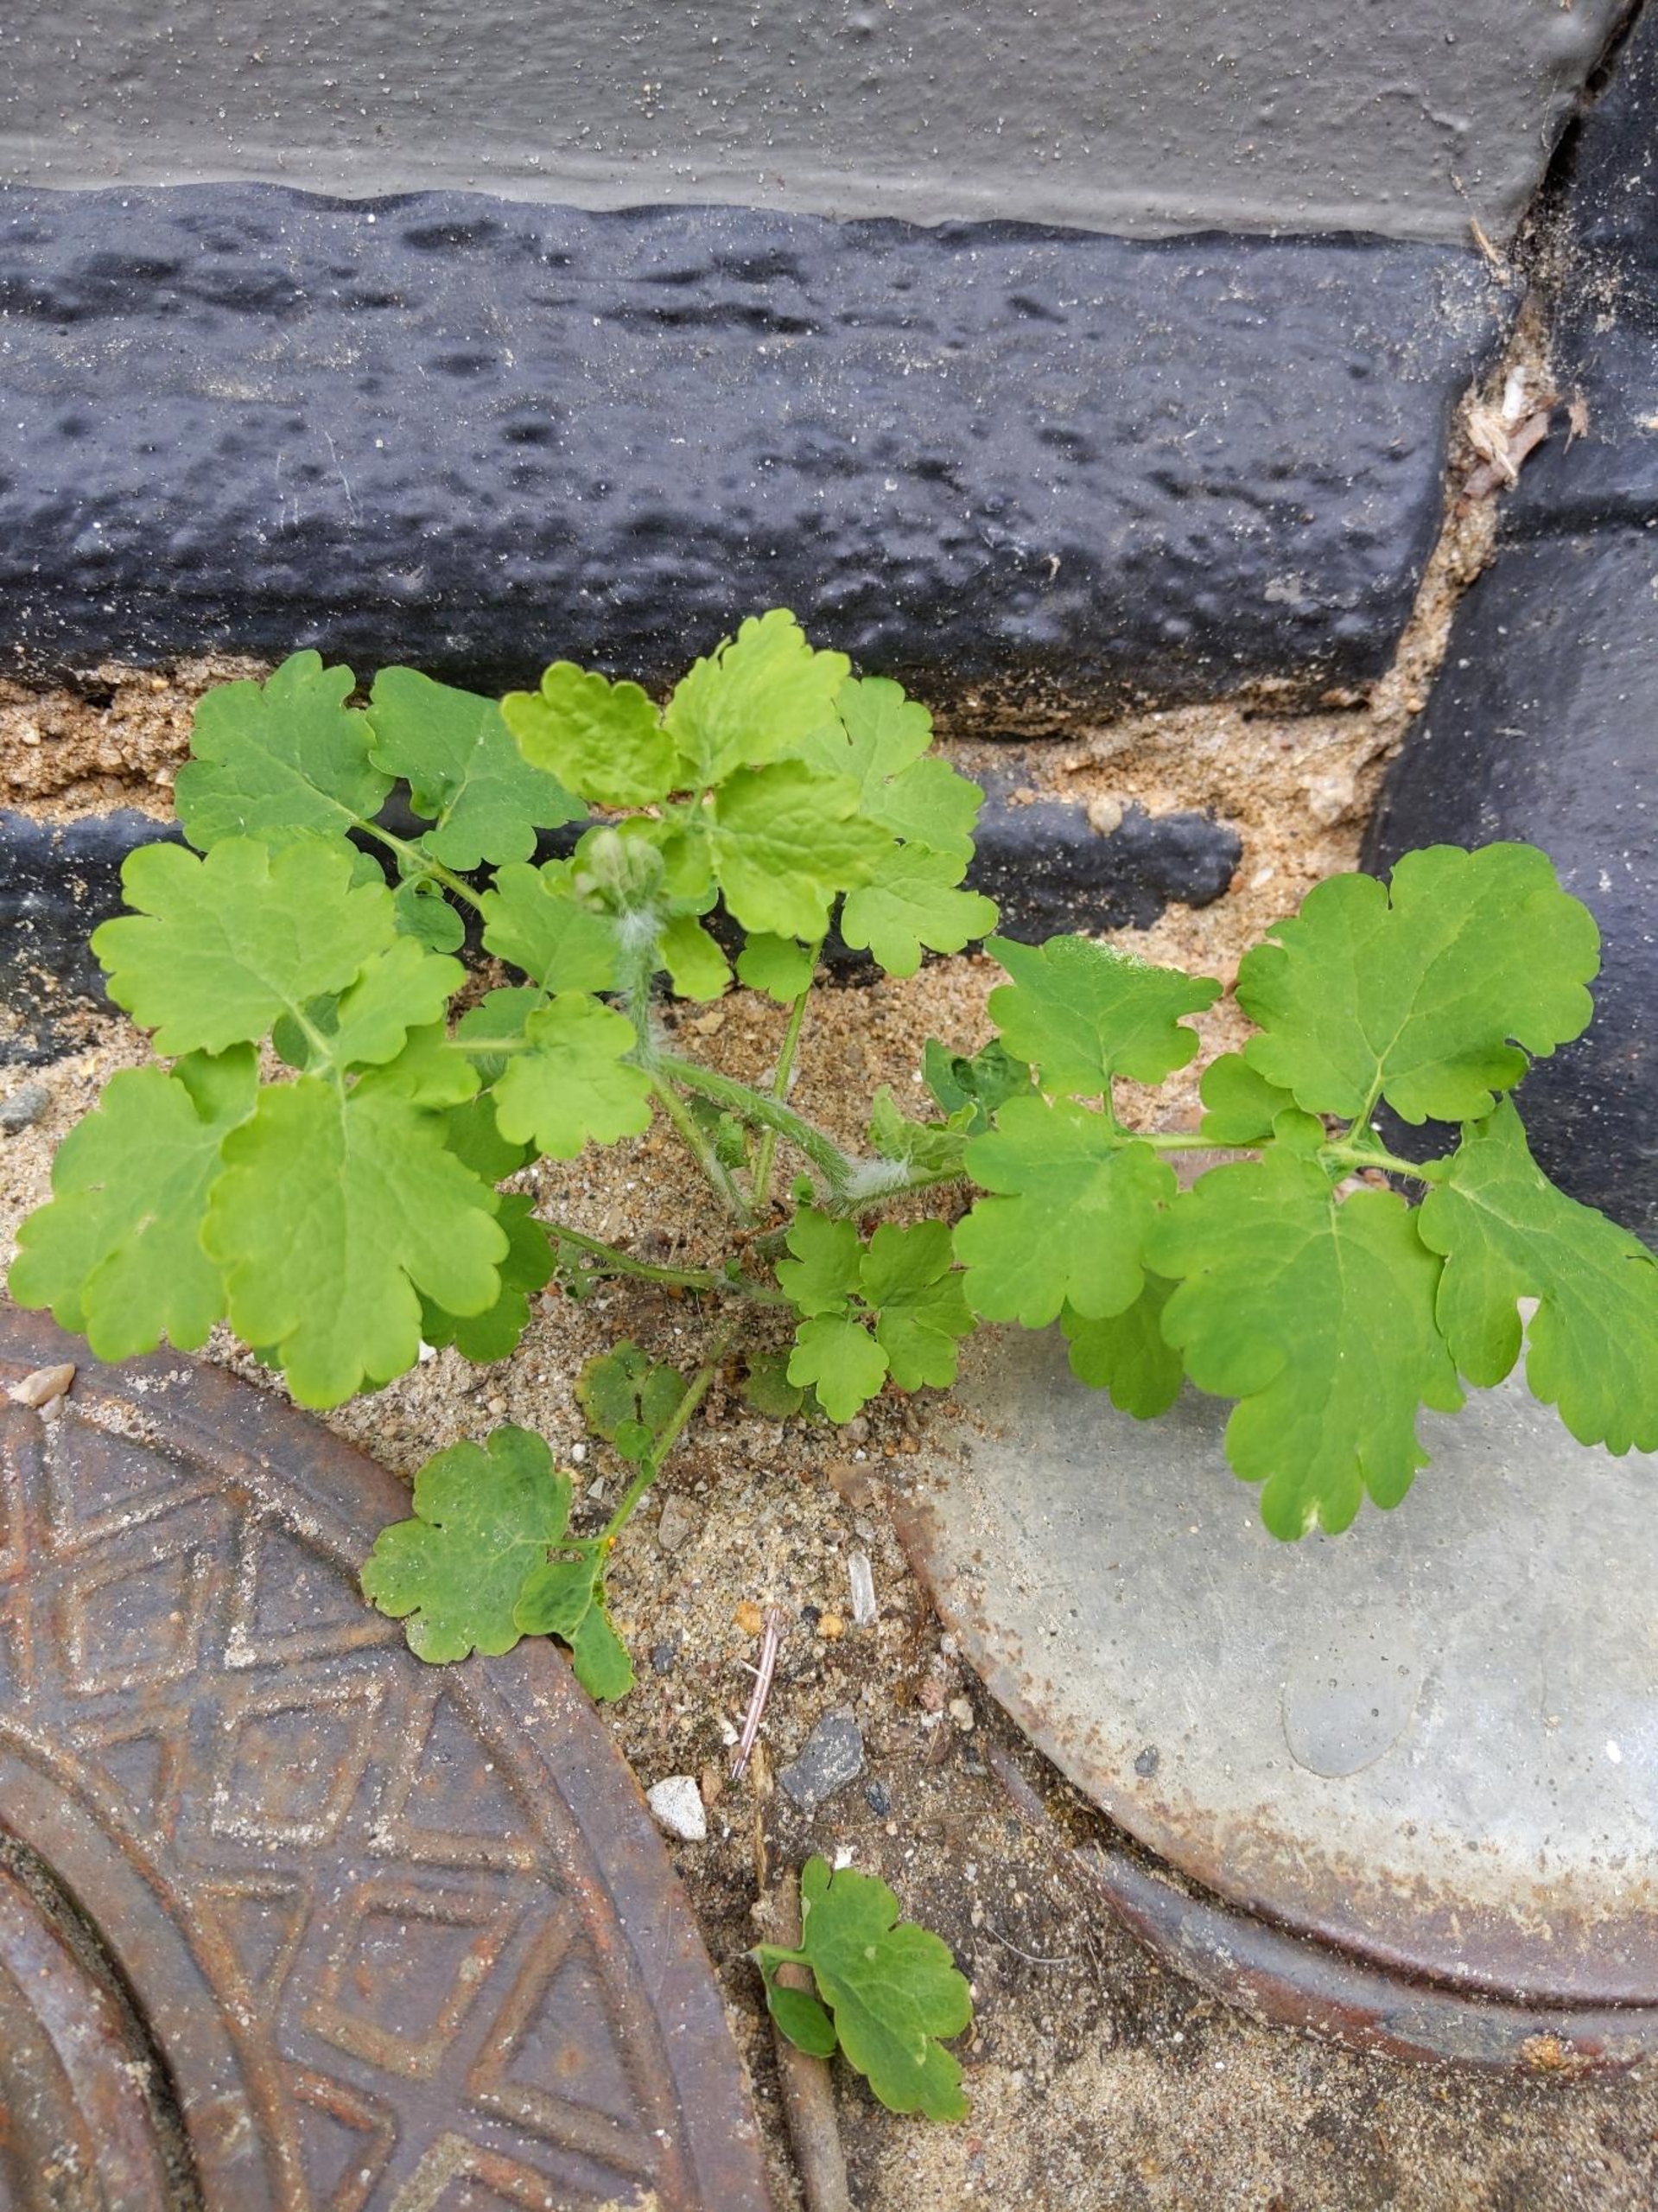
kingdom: Plantae
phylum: Tracheophyta
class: Magnoliopsida
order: Ranunculales
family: Papaveraceae
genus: Chelidonium
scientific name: Chelidonium majus
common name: Svaleurt
